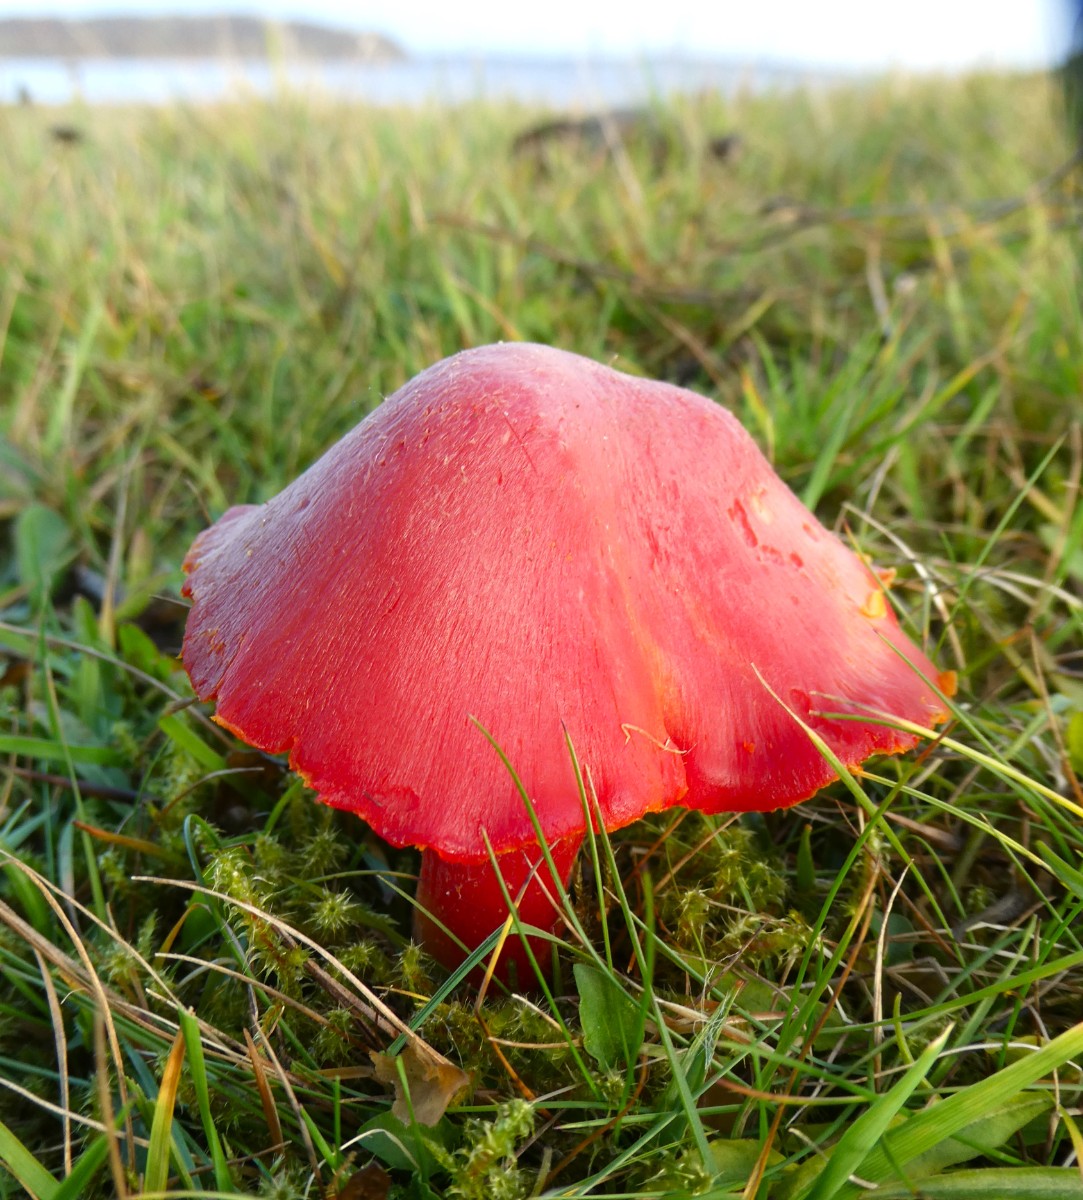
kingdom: Fungi
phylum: Basidiomycota
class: Agaricomycetes
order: Agaricales
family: Hygrophoraceae
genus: Hygrocybe
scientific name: Hygrocybe splendidissima
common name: knaldrød vokshat
